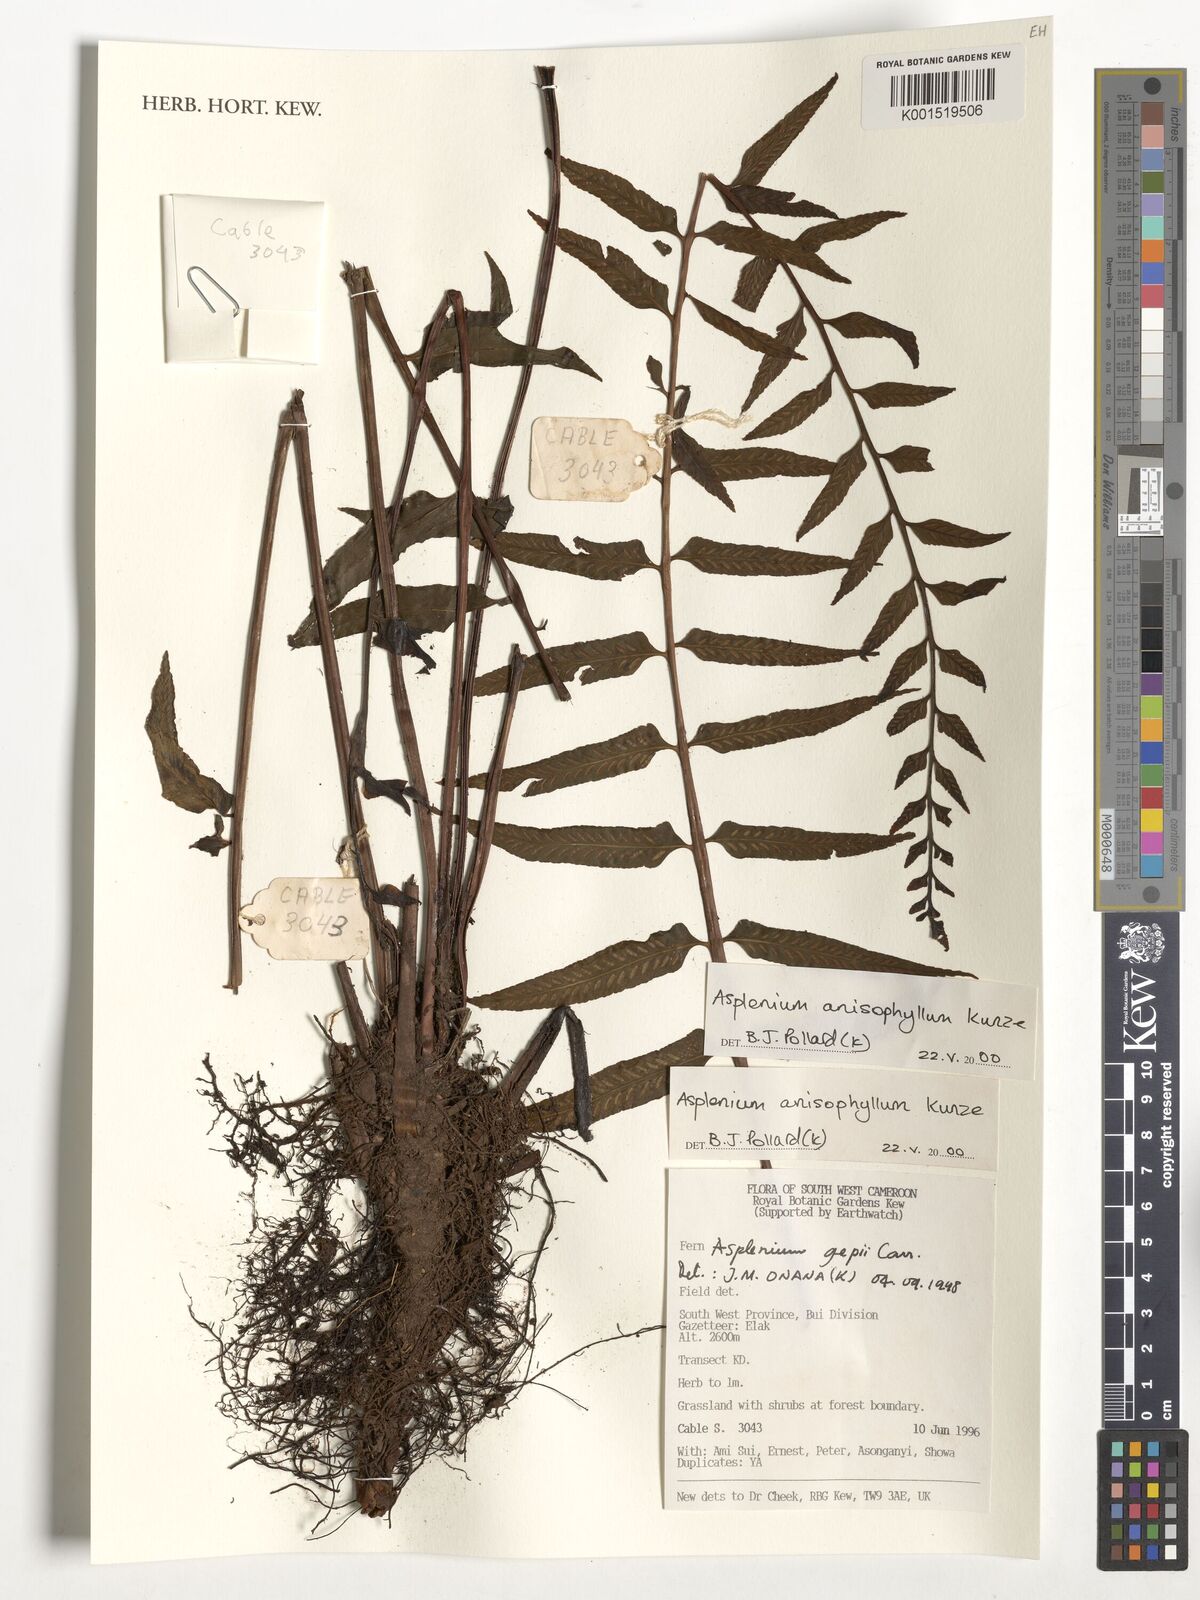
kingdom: Plantae
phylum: Tracheophyta
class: Polypodiopsida
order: Polypodiales
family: Aspleniaceae
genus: Asplenium
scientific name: Asplenium anisophyllum
